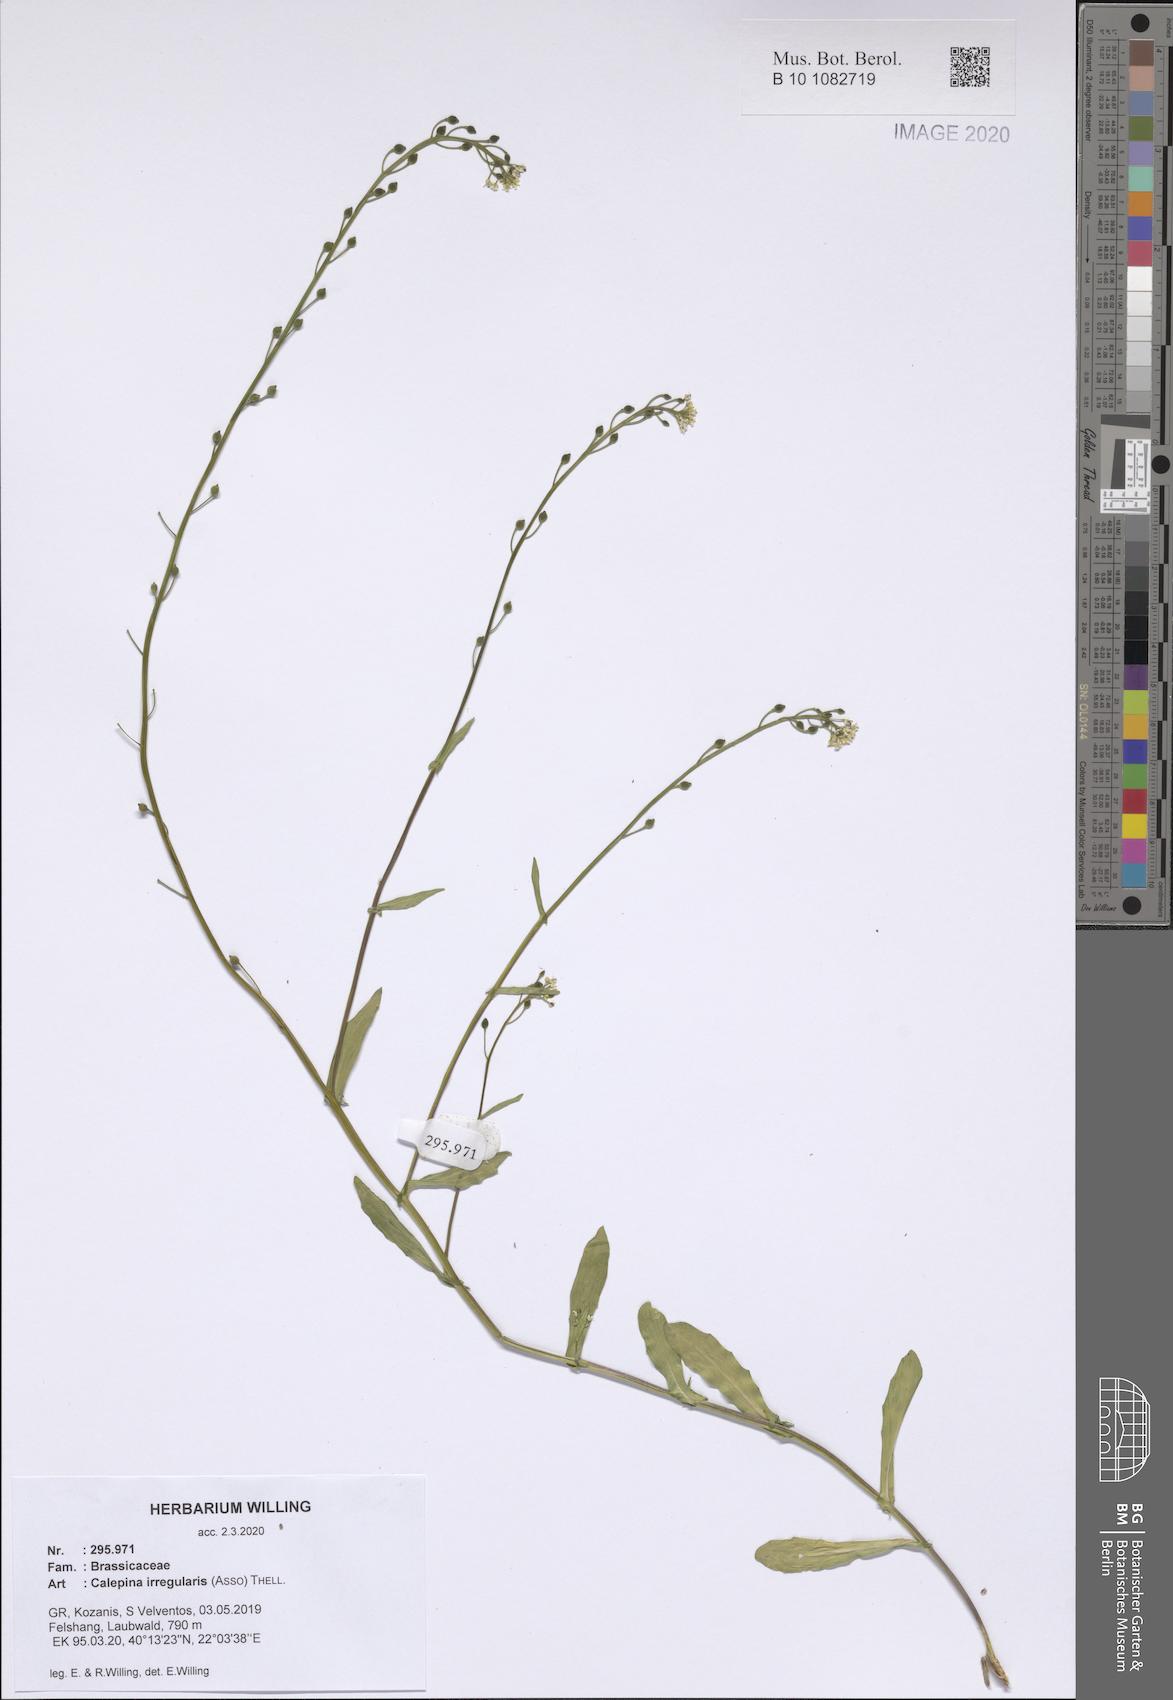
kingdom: Plantae
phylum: Tracheophyta
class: Magnoliopsida
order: Brassicales
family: Brassicaceae
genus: Calepina
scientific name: Calepina irregularis
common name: White ballmustard
